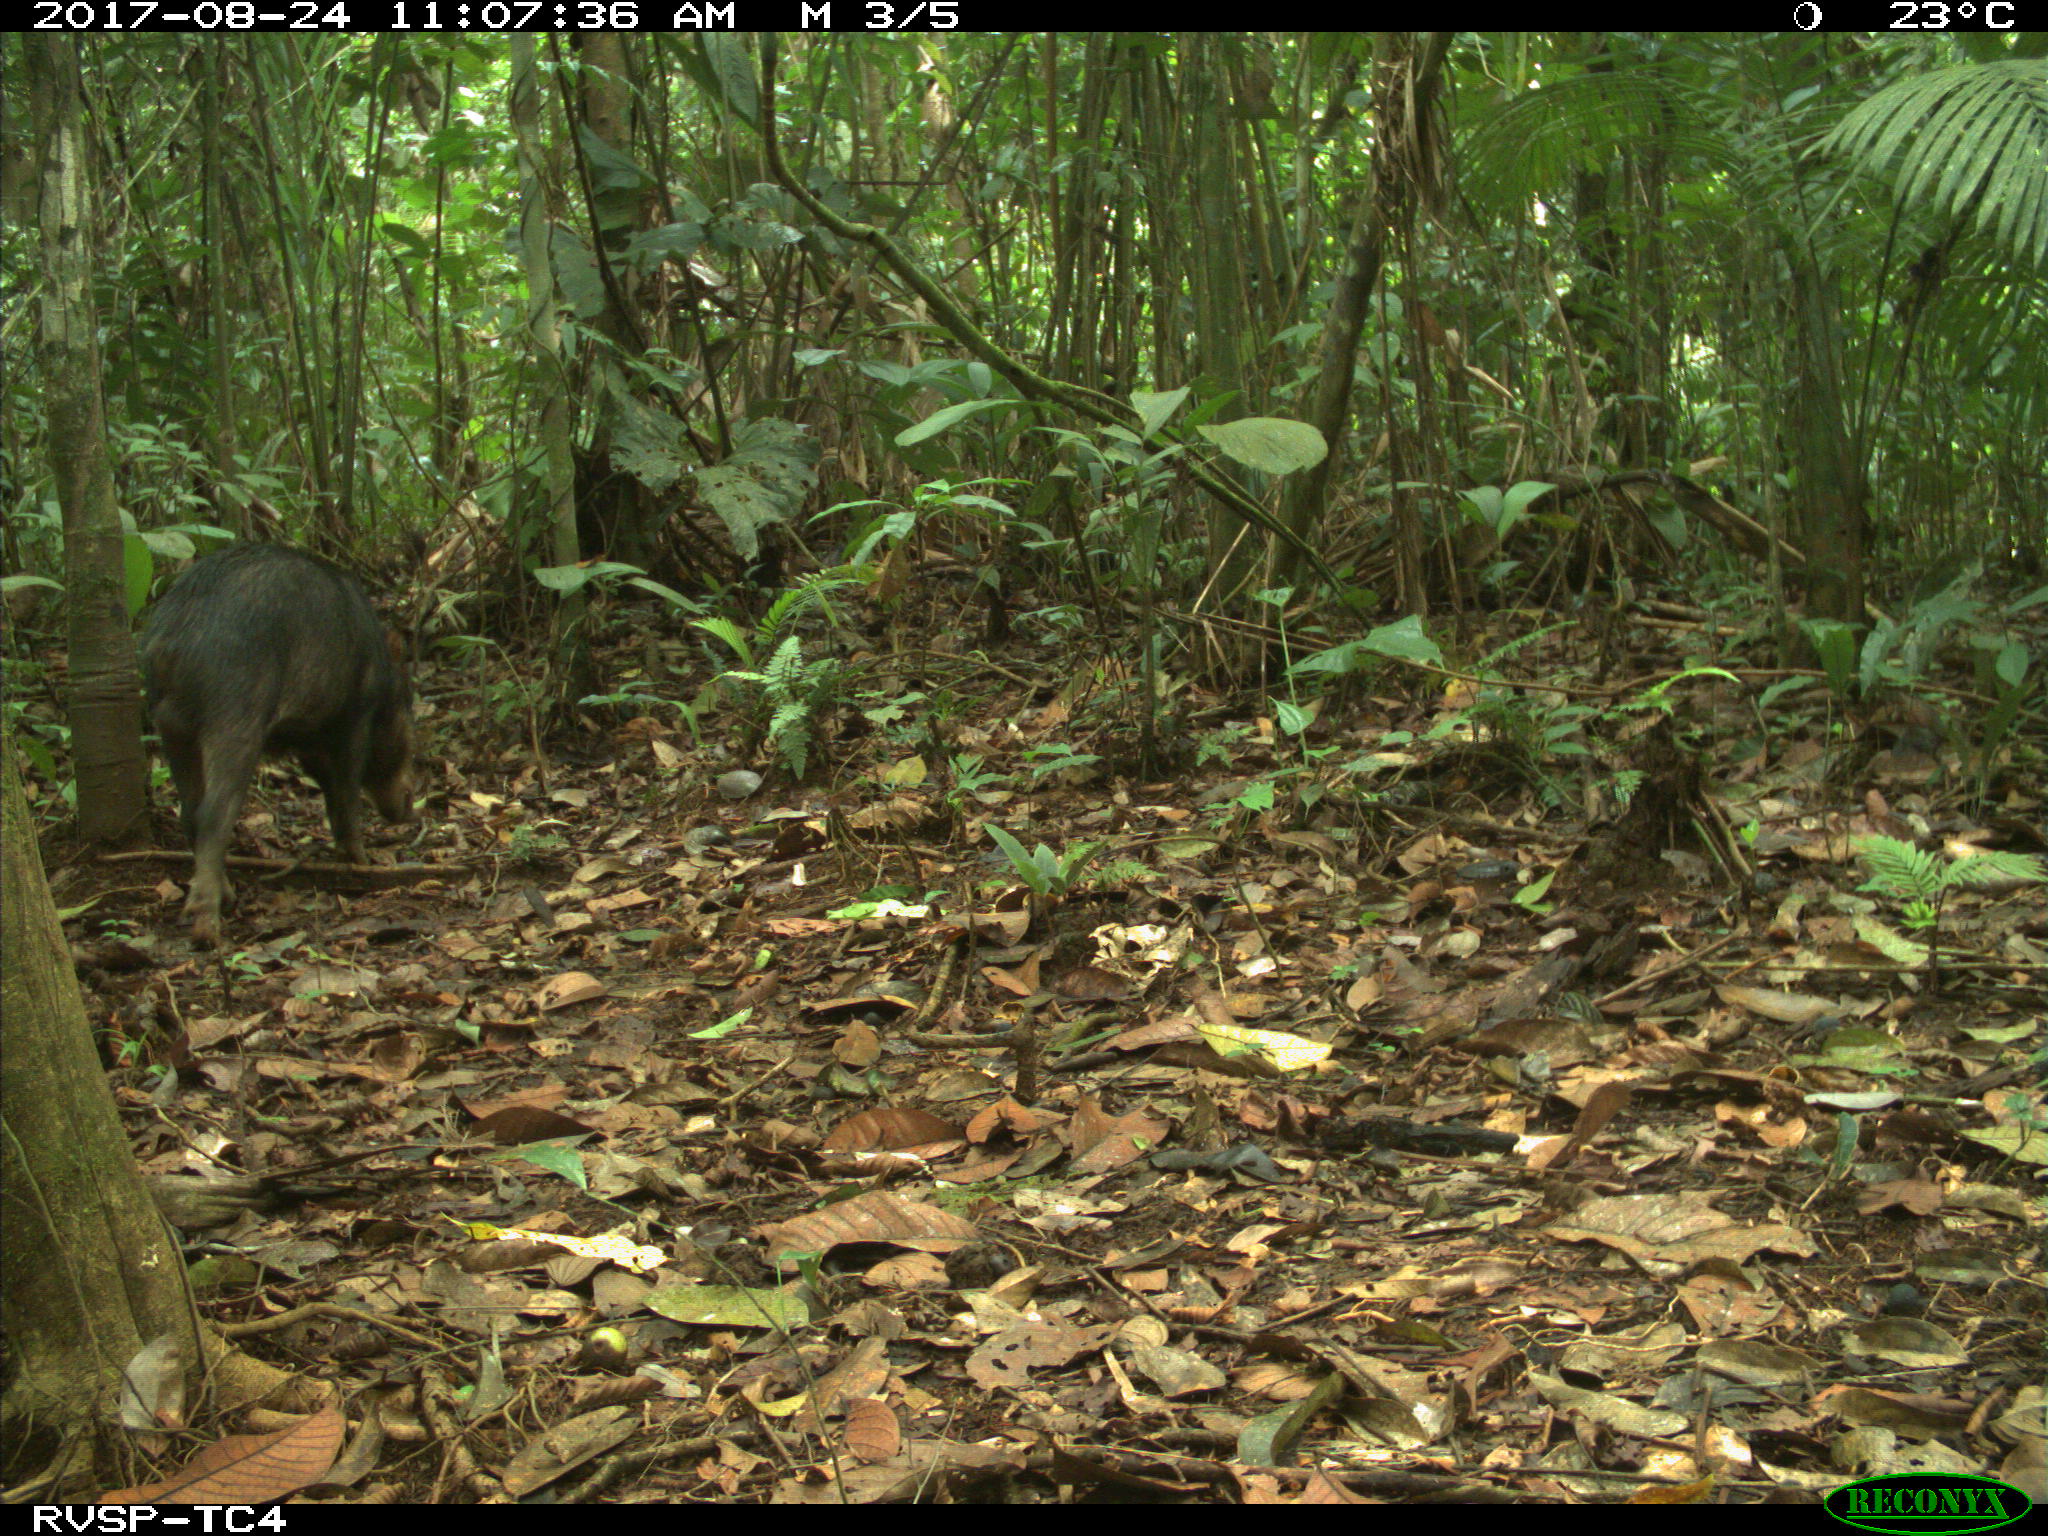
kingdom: Animalia
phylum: Chordata
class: Mammalia
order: Artiodactyla
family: Tayassuidae
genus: Tayassu
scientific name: Tayassu pecari
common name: White-lipped peccary
